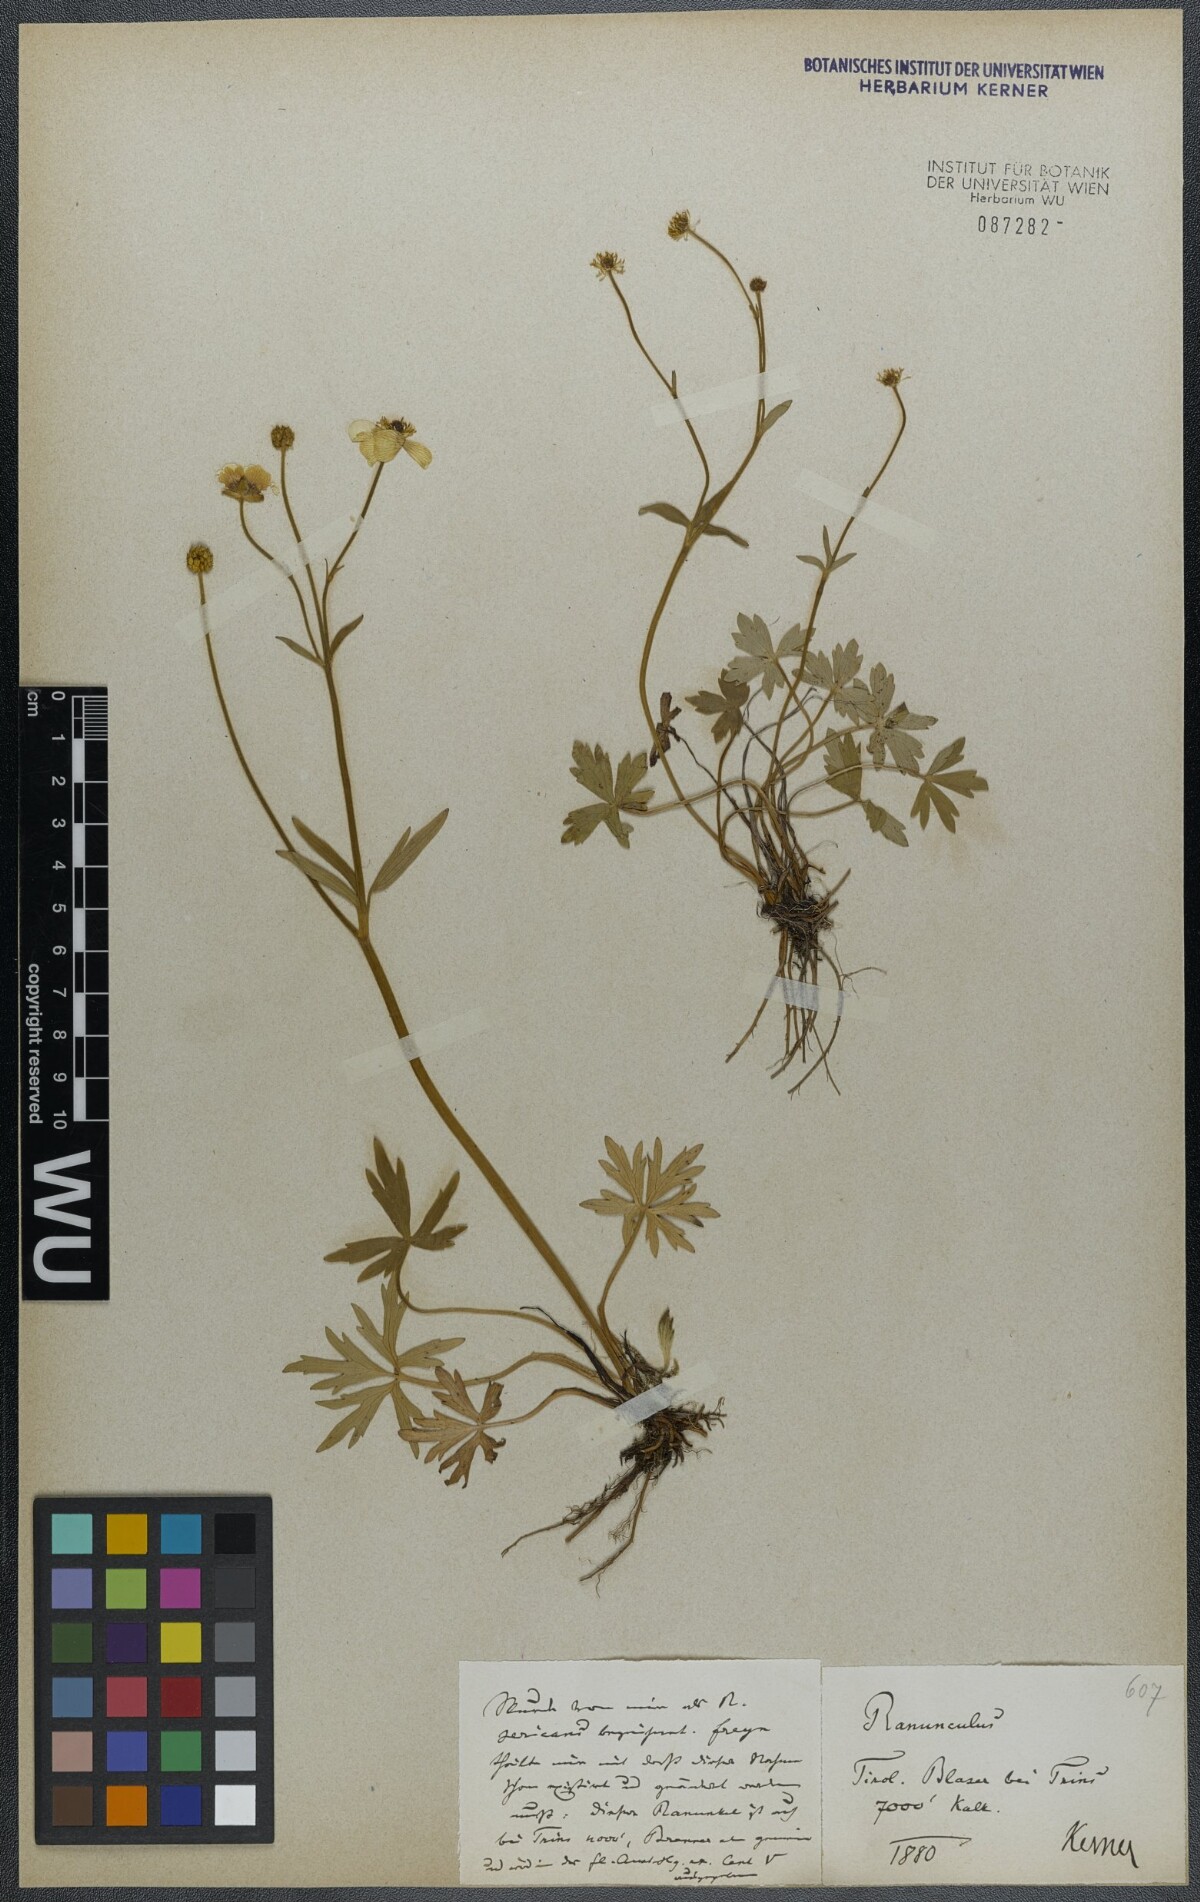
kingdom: Plantae
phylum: Tracheophyta
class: Magnoliopsida
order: Ranunculales
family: Ranunculaceae
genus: Ranunculus
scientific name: Ranunculus acris
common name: Meadow buttercup
